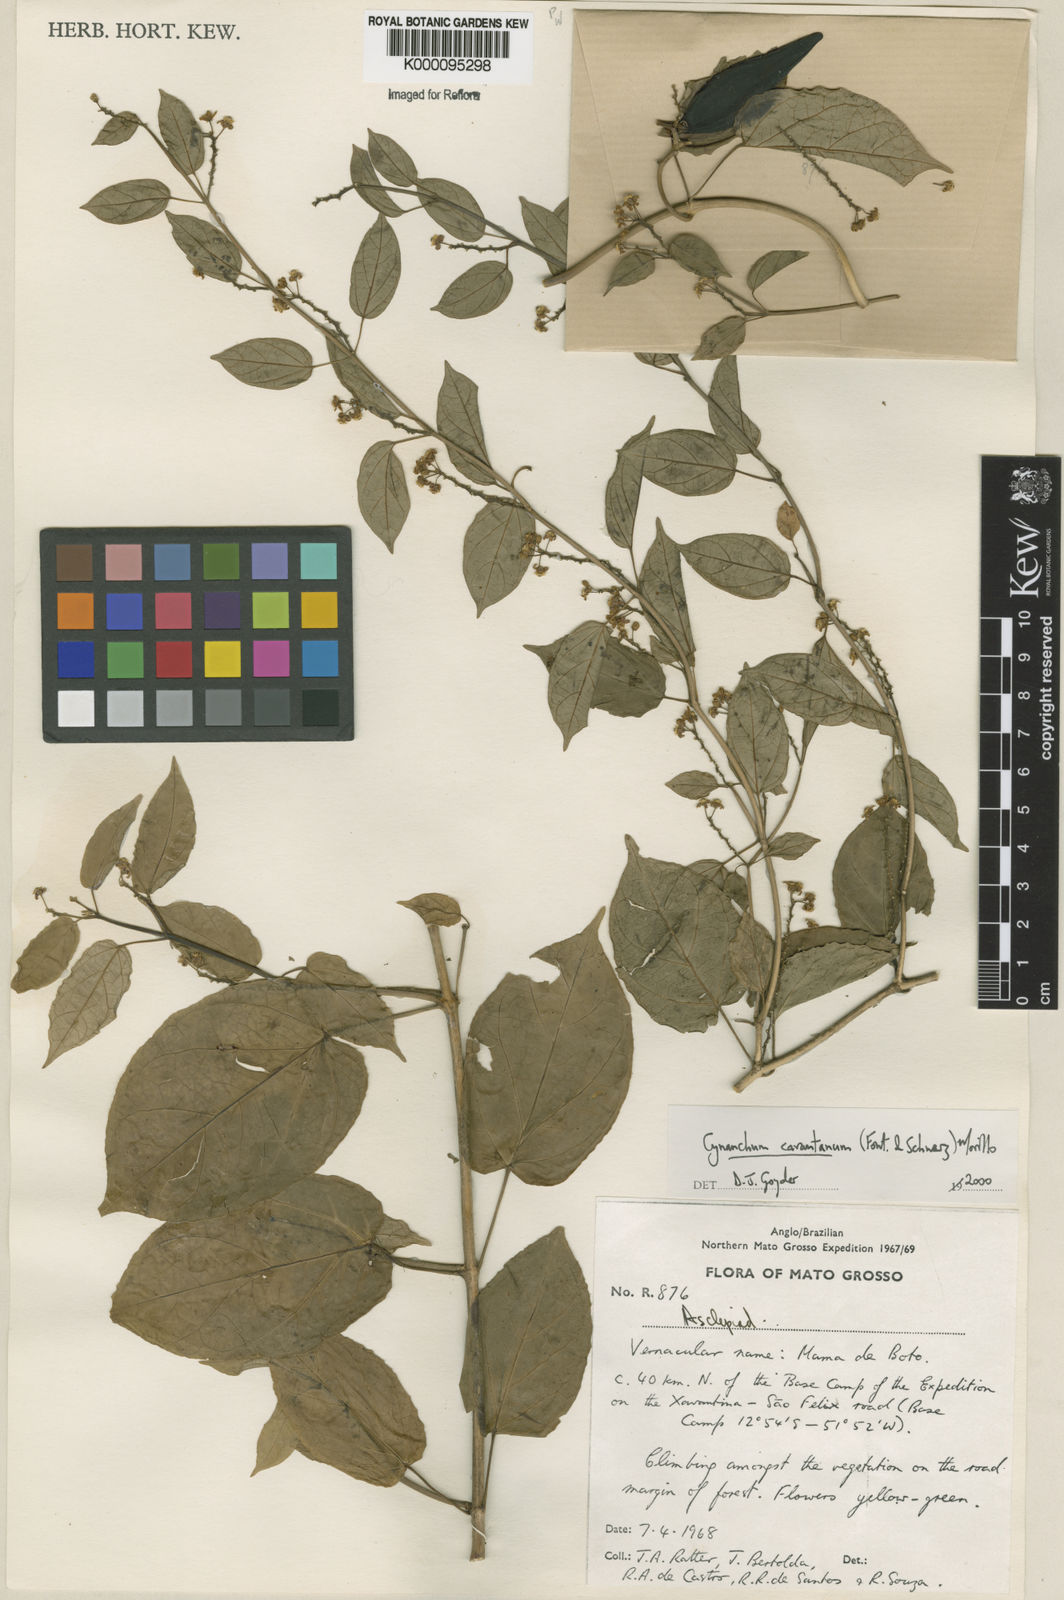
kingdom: Plantae
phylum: Tracheophyta
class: Magnoliopsida
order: Gentianales
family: Apocynaceae
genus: Cynanchum
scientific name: Cynanchum carautanum
